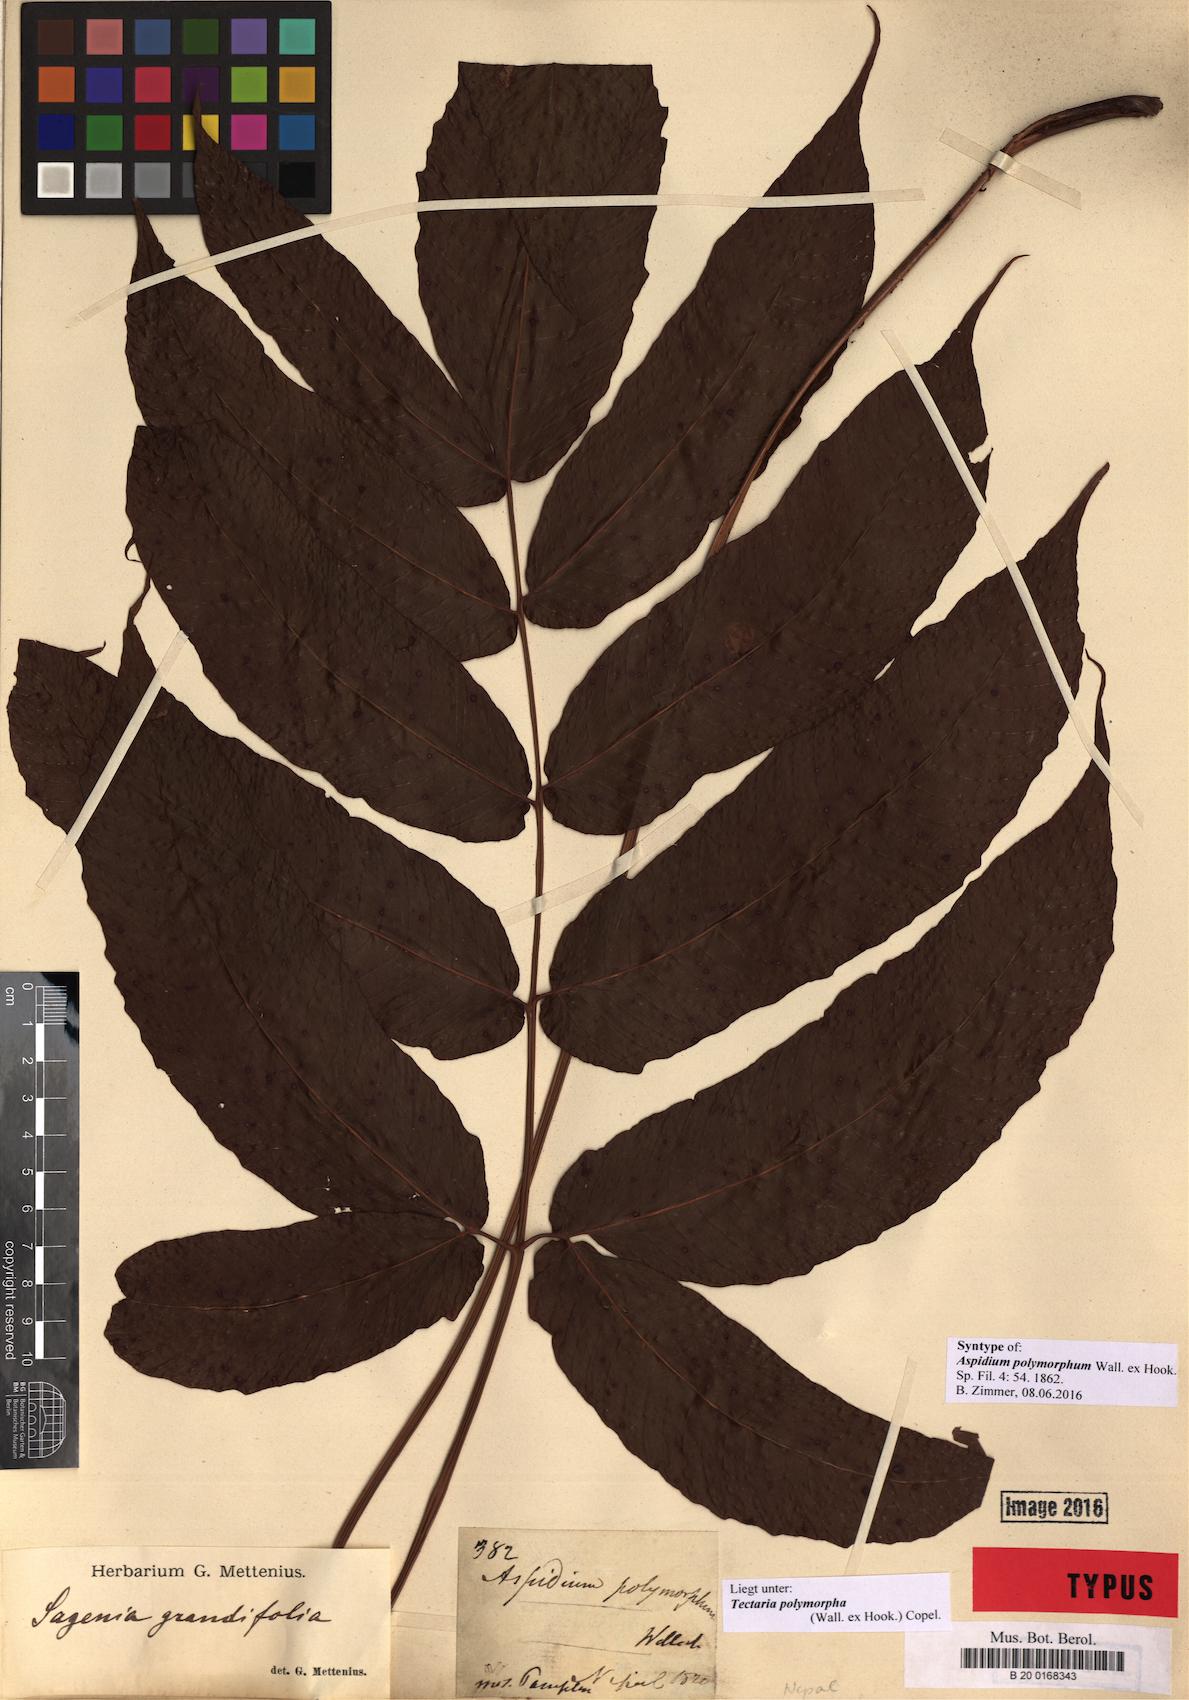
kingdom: Plantae
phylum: Tracheophyta
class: Polypodiopsida
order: Polypodiales
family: Tectariaceae
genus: Tectaria
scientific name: Tectaria polymorpha
